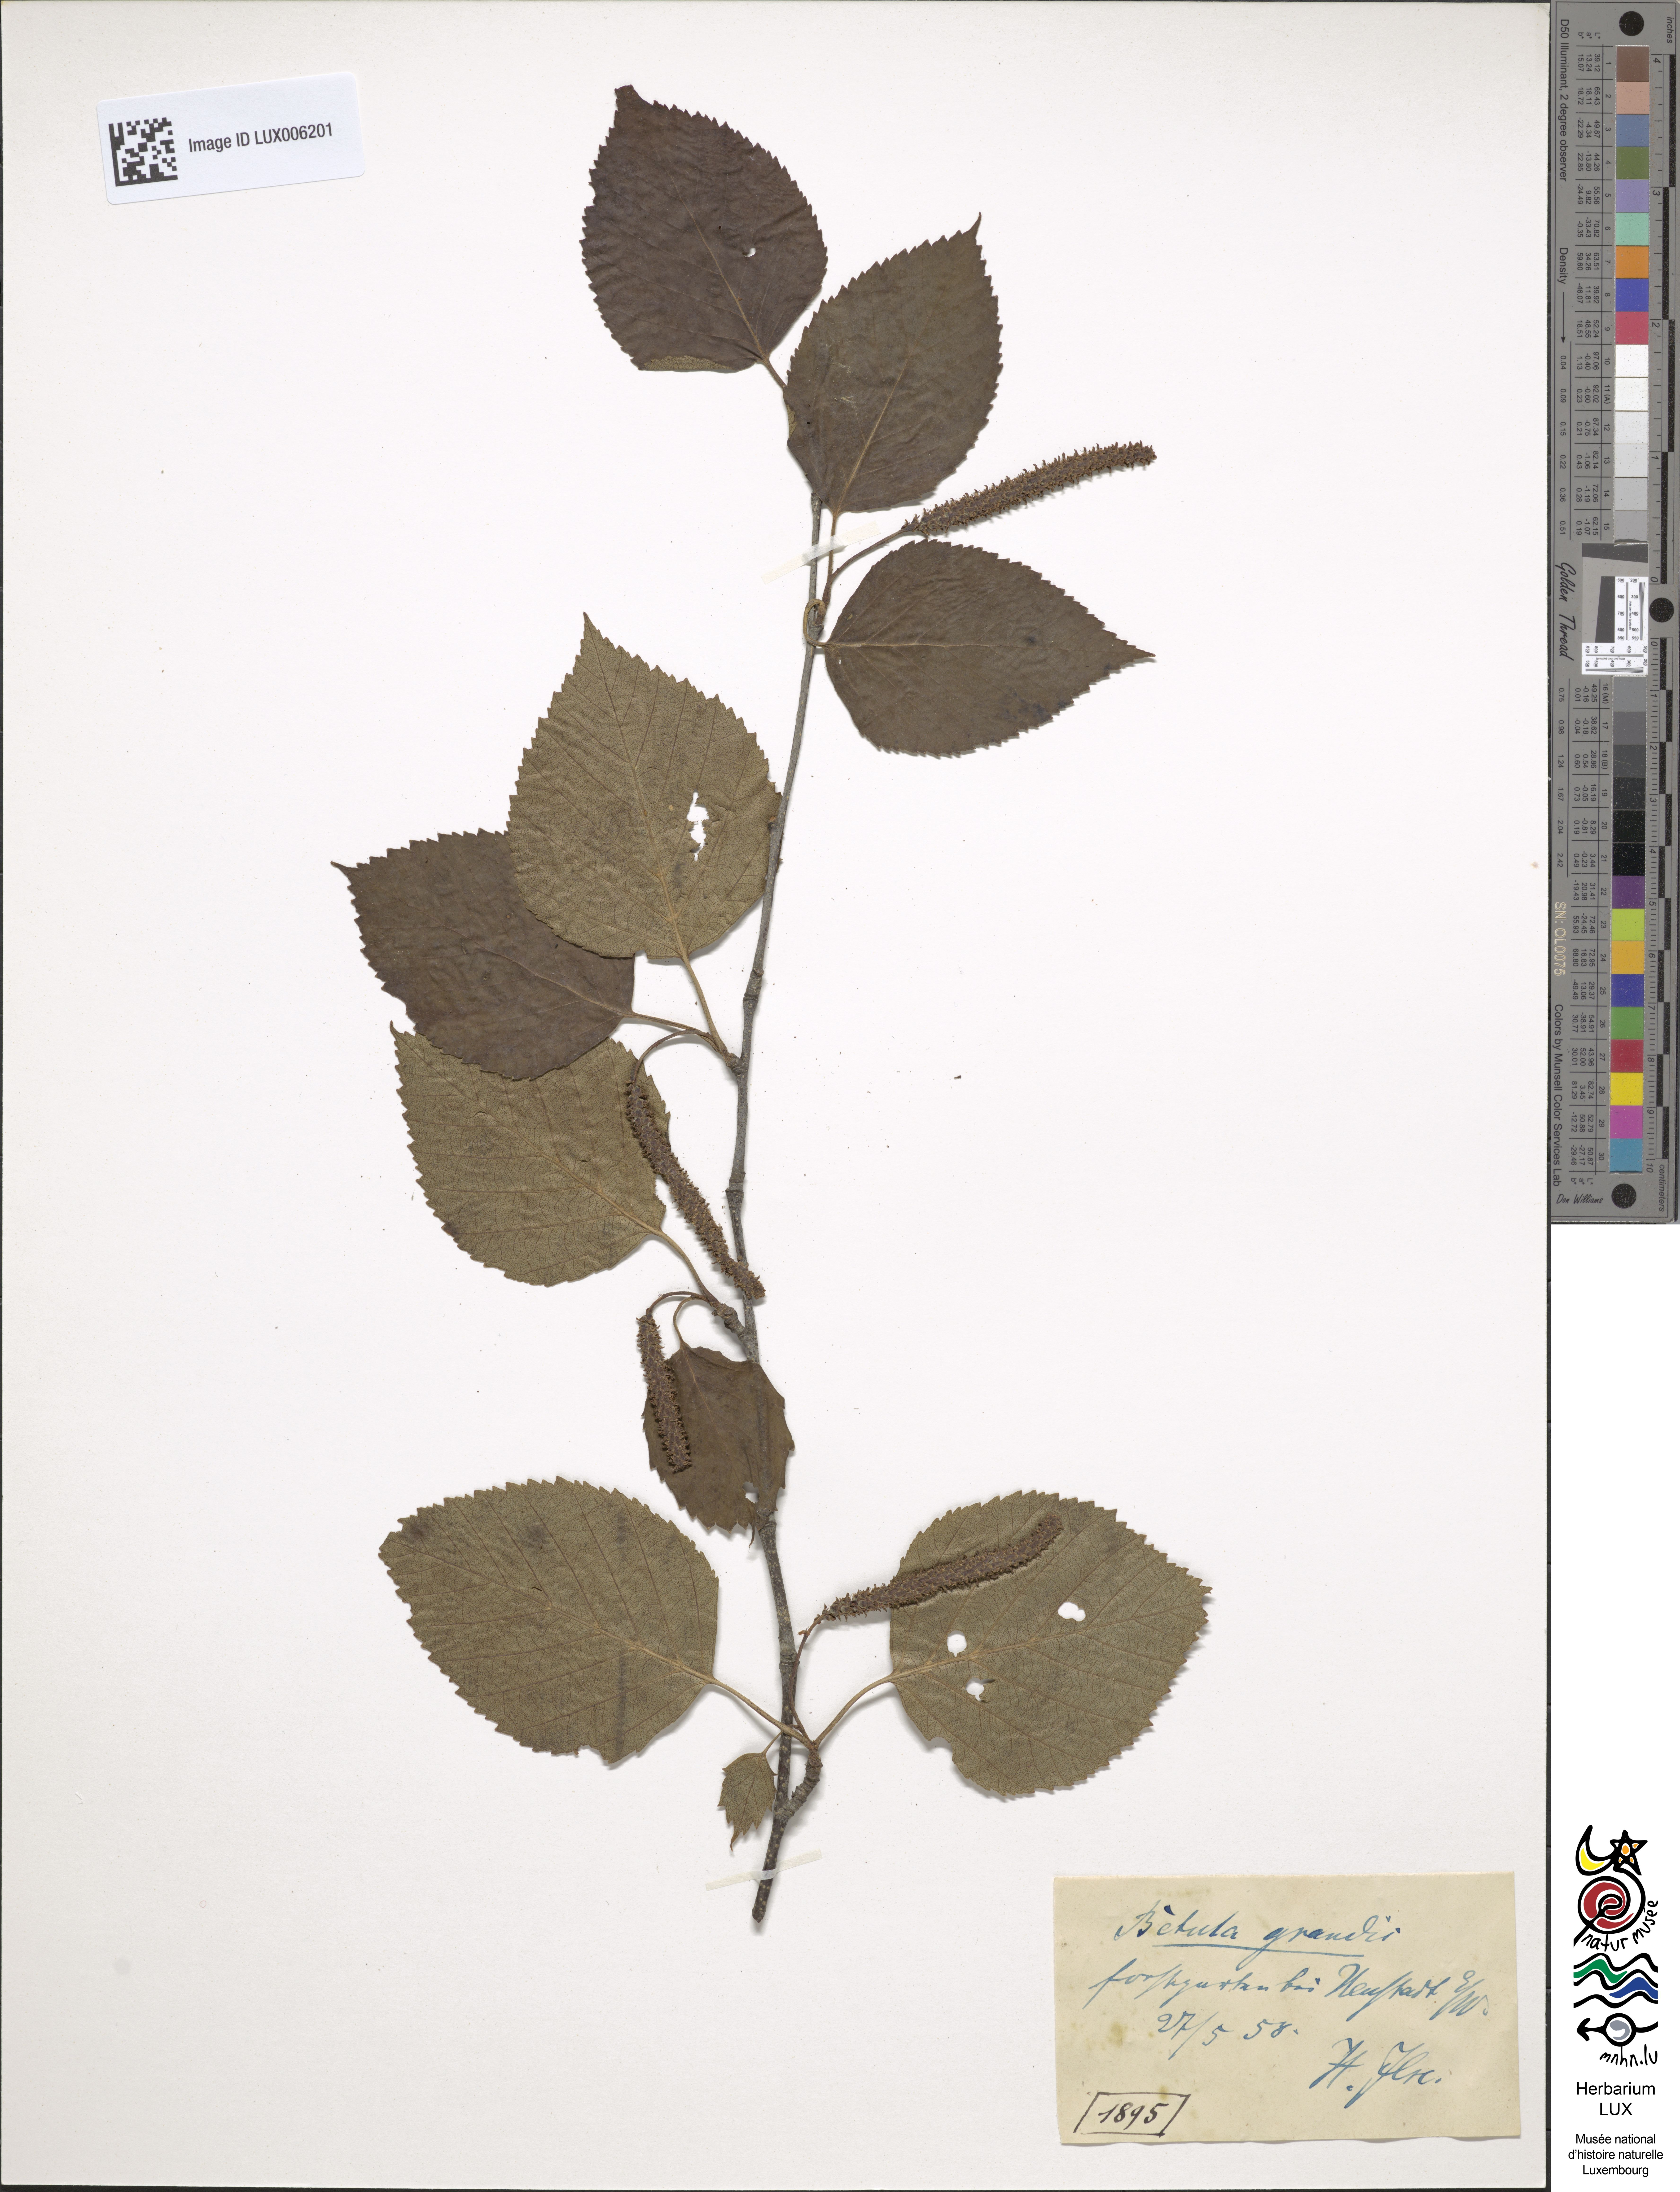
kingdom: Plantae
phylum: Tracheophyta
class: Magnoliopsida
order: Fagales
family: Betulaceae
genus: Betula
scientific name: Betula pubescens
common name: Downy birch
